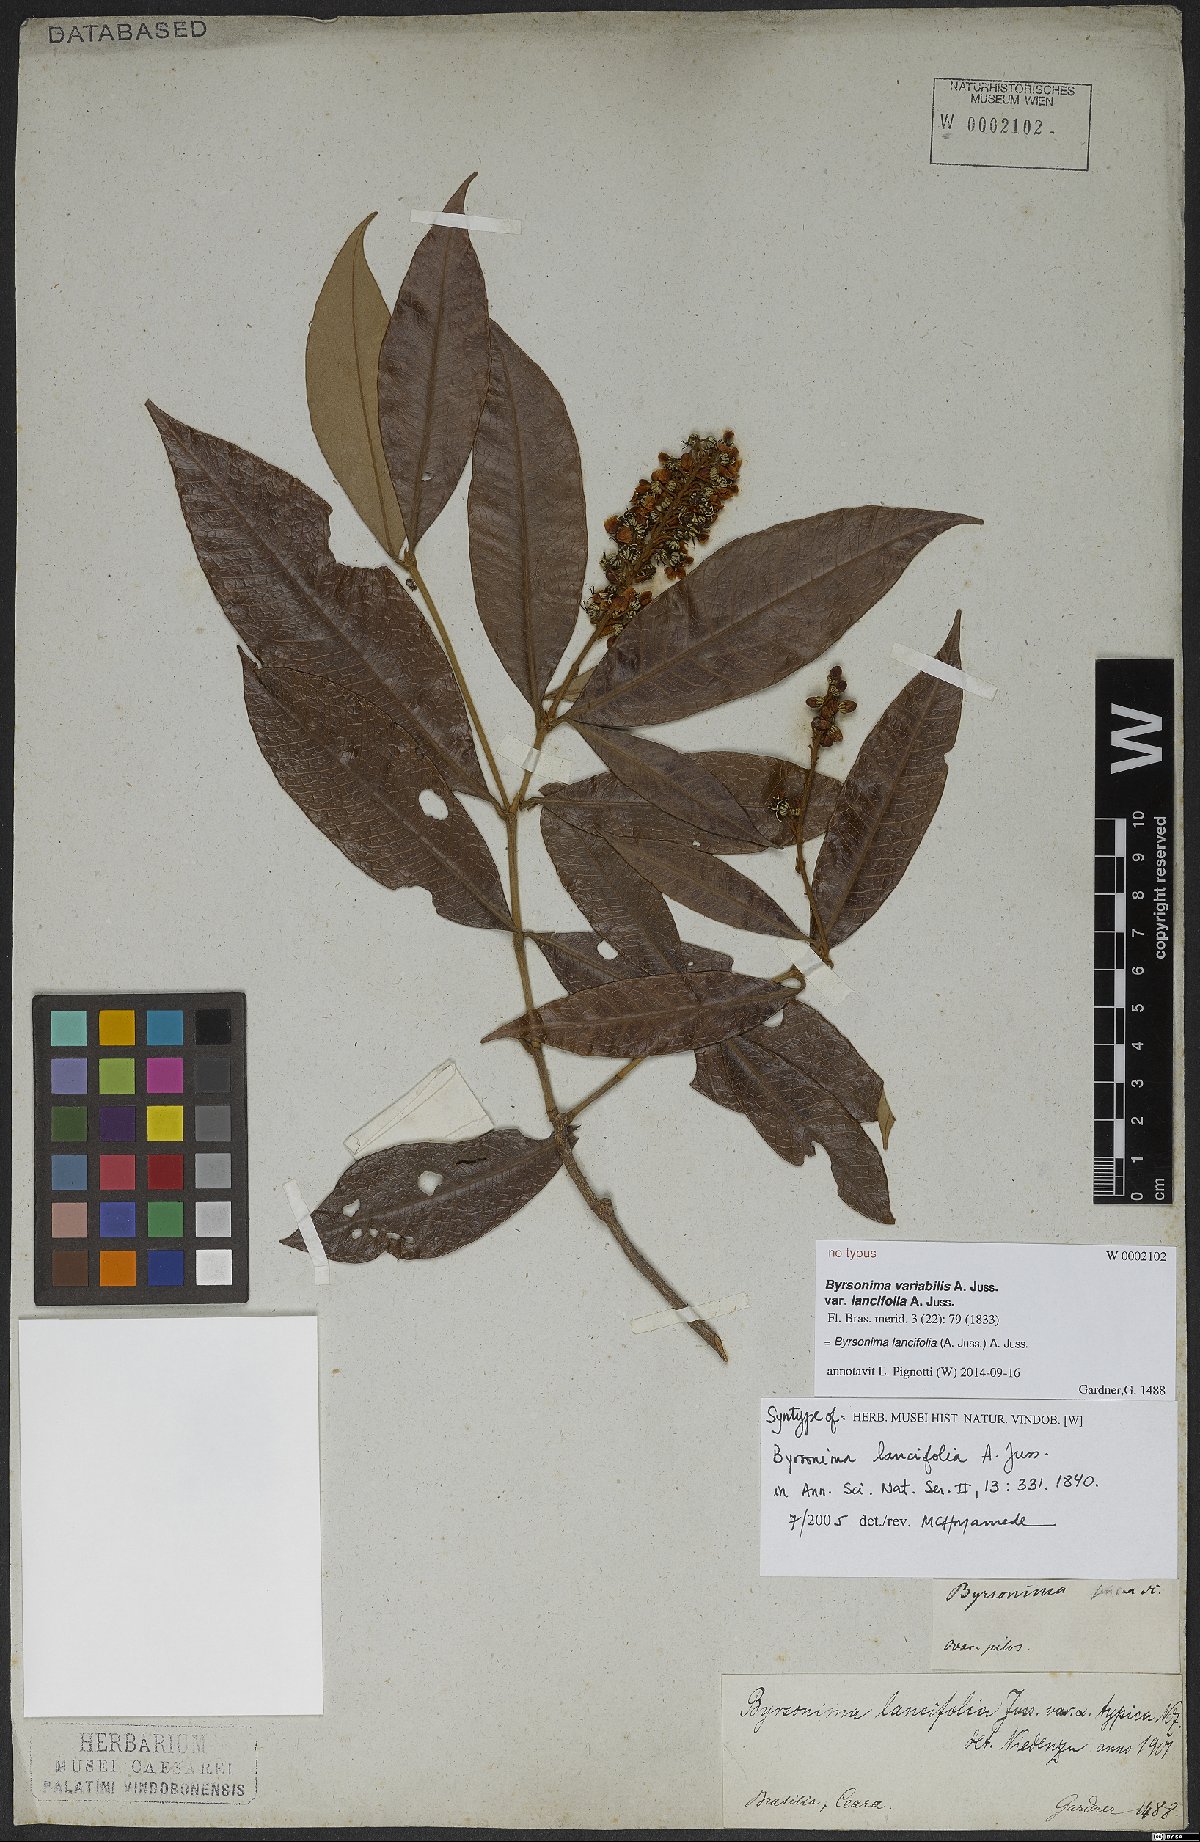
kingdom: Plantae
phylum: Tracheophyta
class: Magnoliopsida
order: Malpighiales
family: Malpighiaceae
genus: Byrsonima
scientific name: Byrsonima lancifolia
